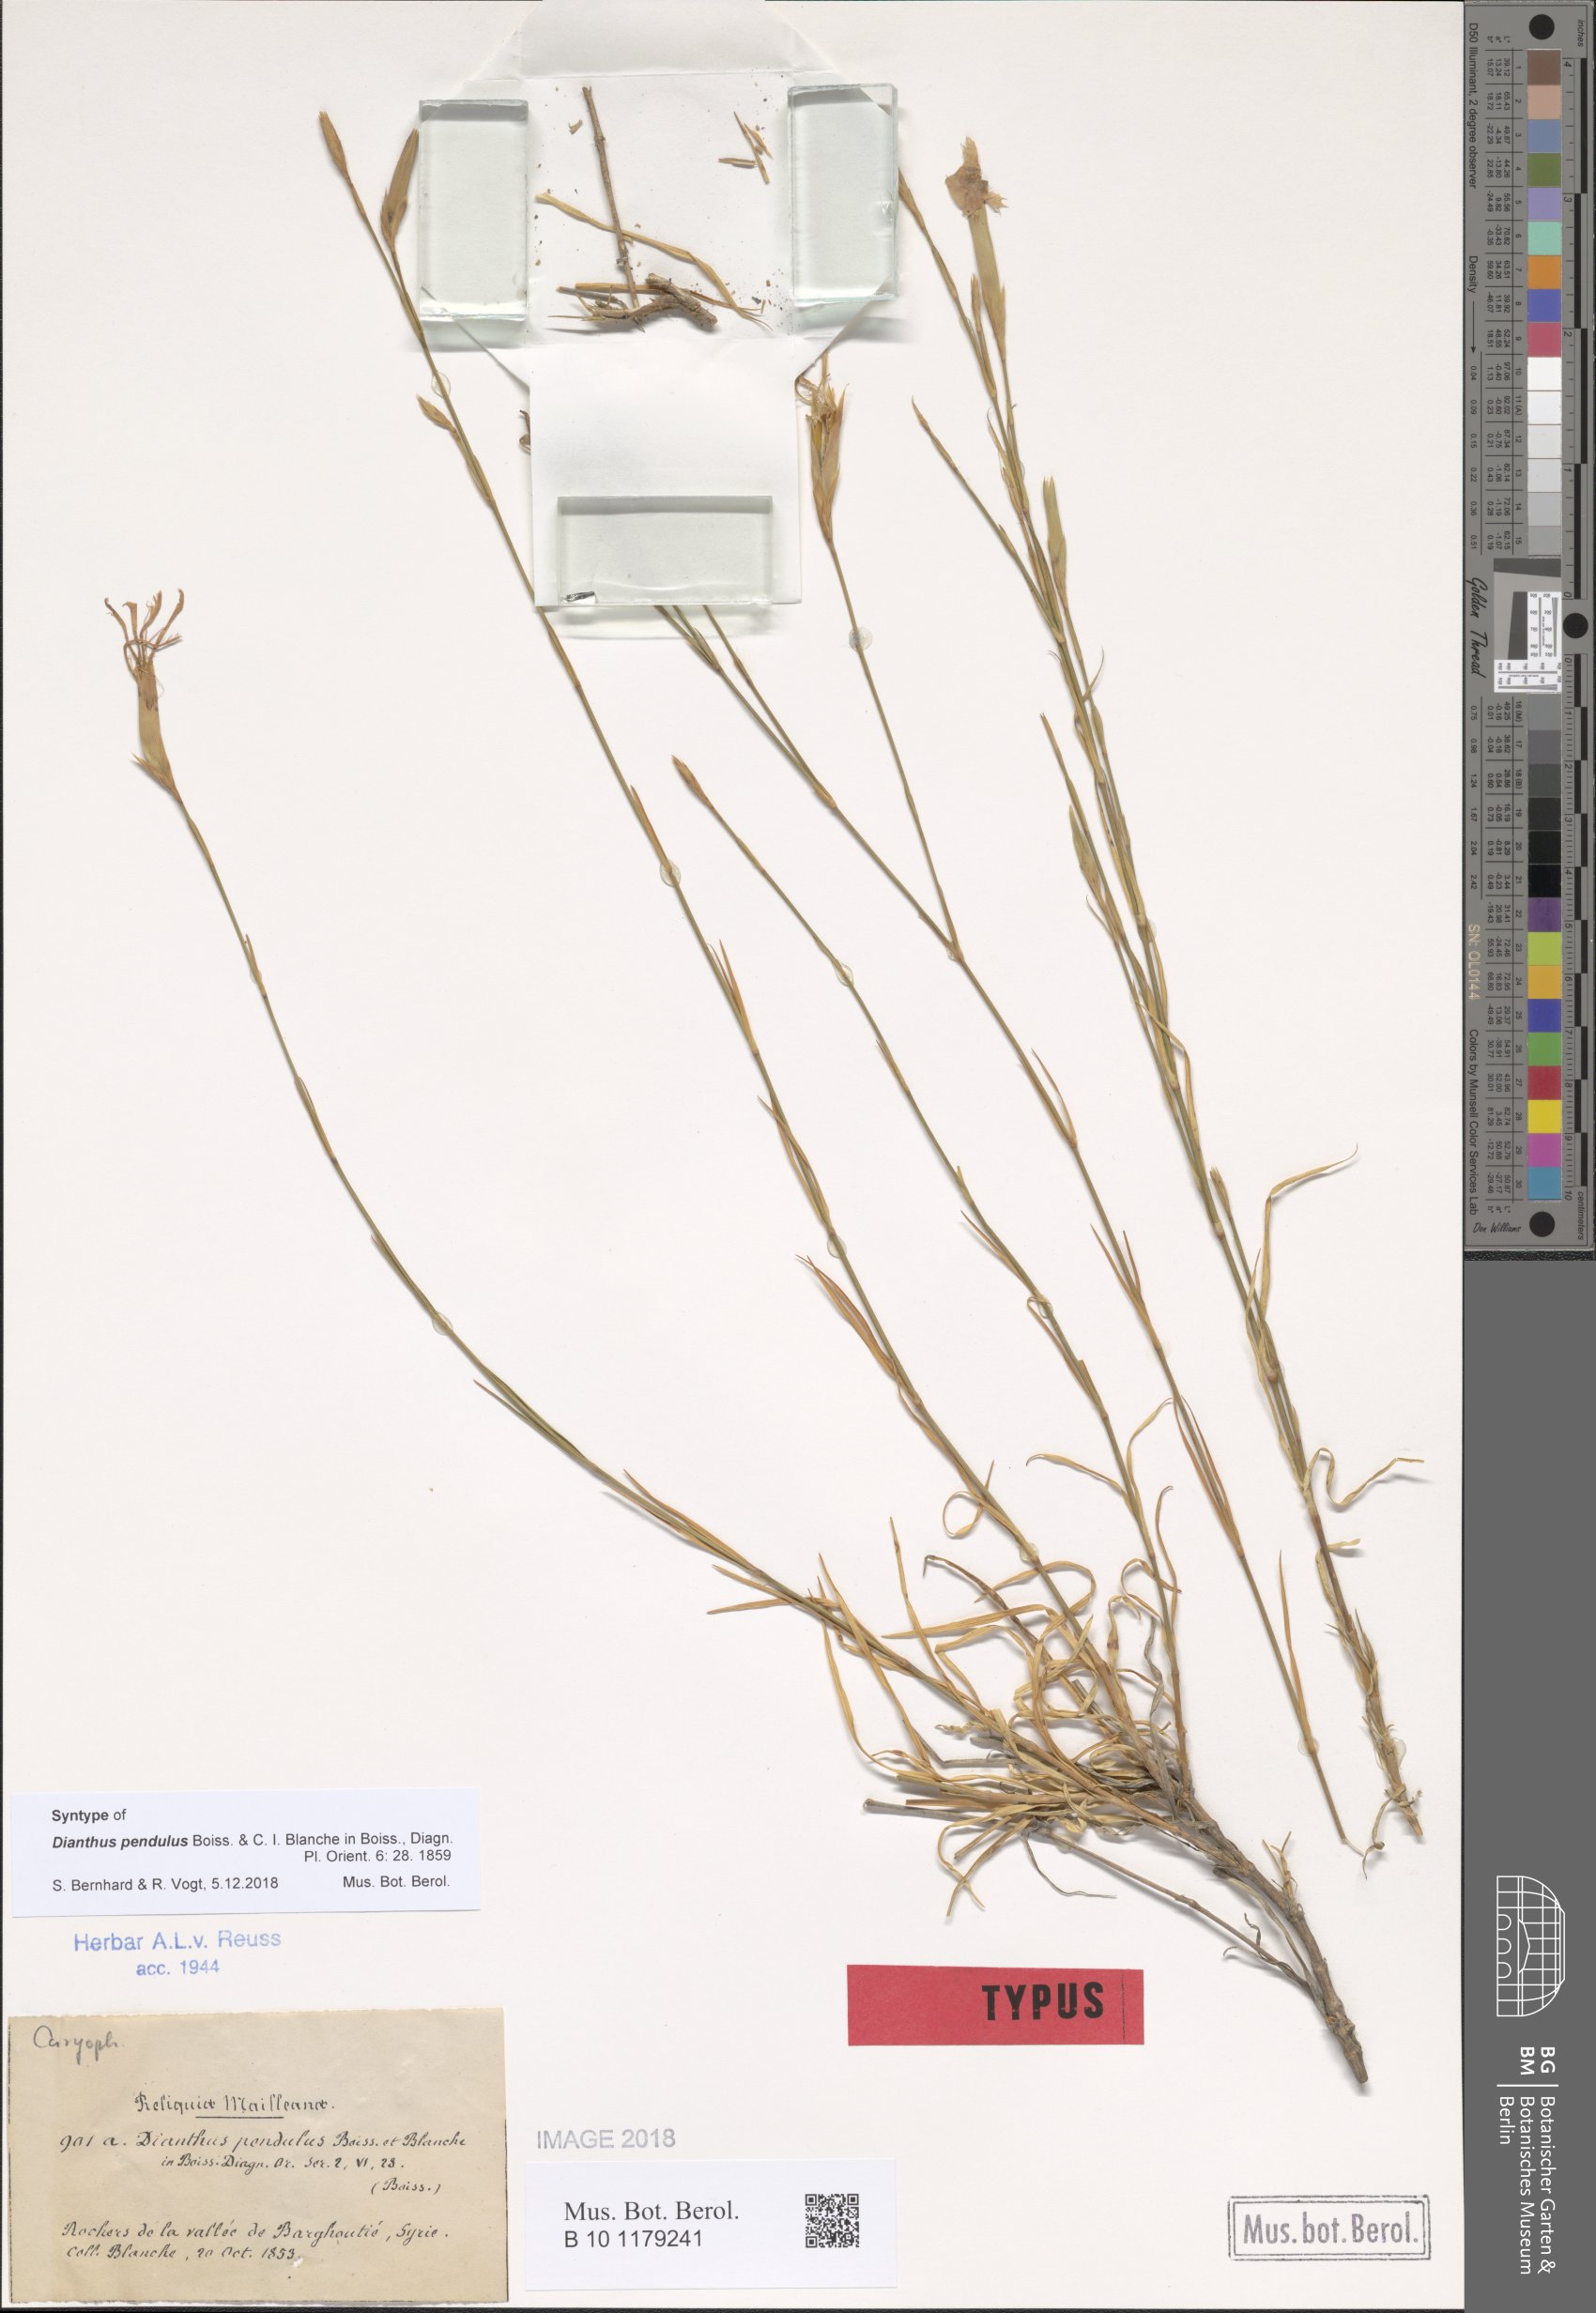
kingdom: Plantae
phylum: Tracheophyta
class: Magnoliopsida
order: Caryophyllales
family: Caryophyllaceae
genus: Dianthus
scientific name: Dianthus pendulus
